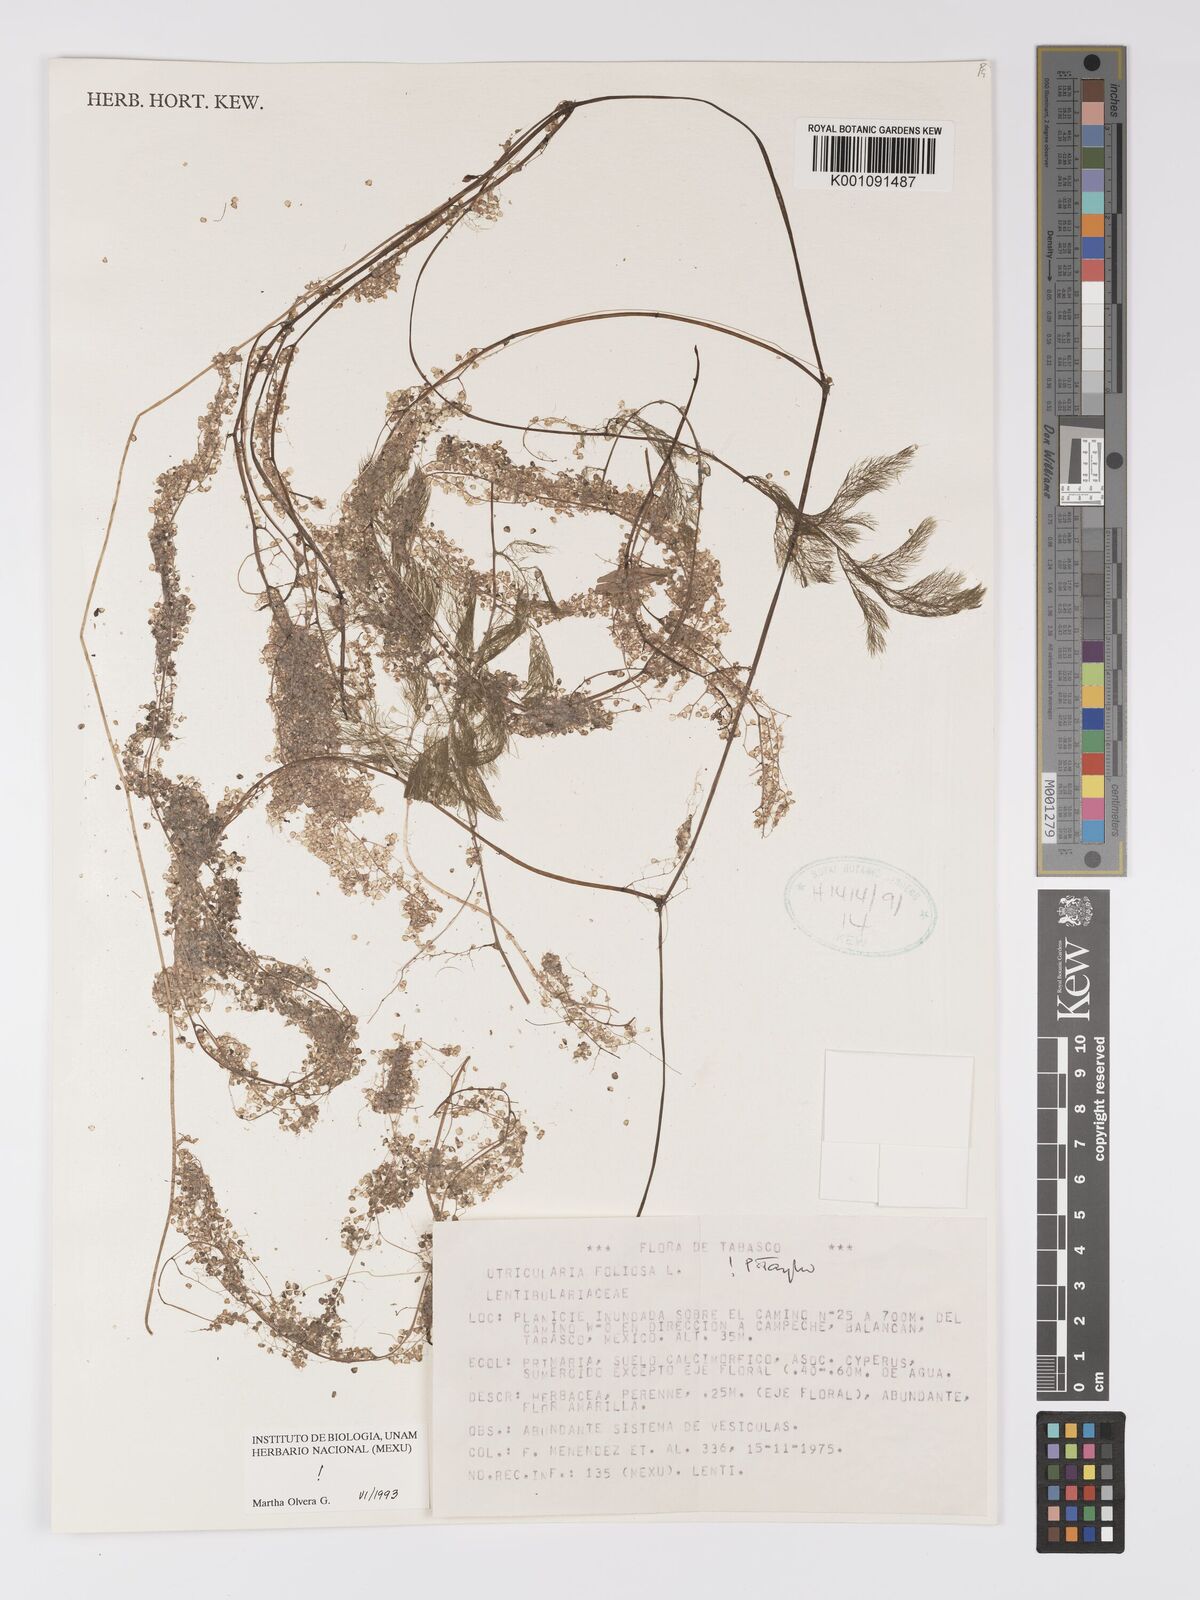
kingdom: Plantae
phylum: Tracheophyta
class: Magnoliopsida
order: Lamiales
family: Lentibulariaceae
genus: Utricularia
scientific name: Utricularia foliosa
